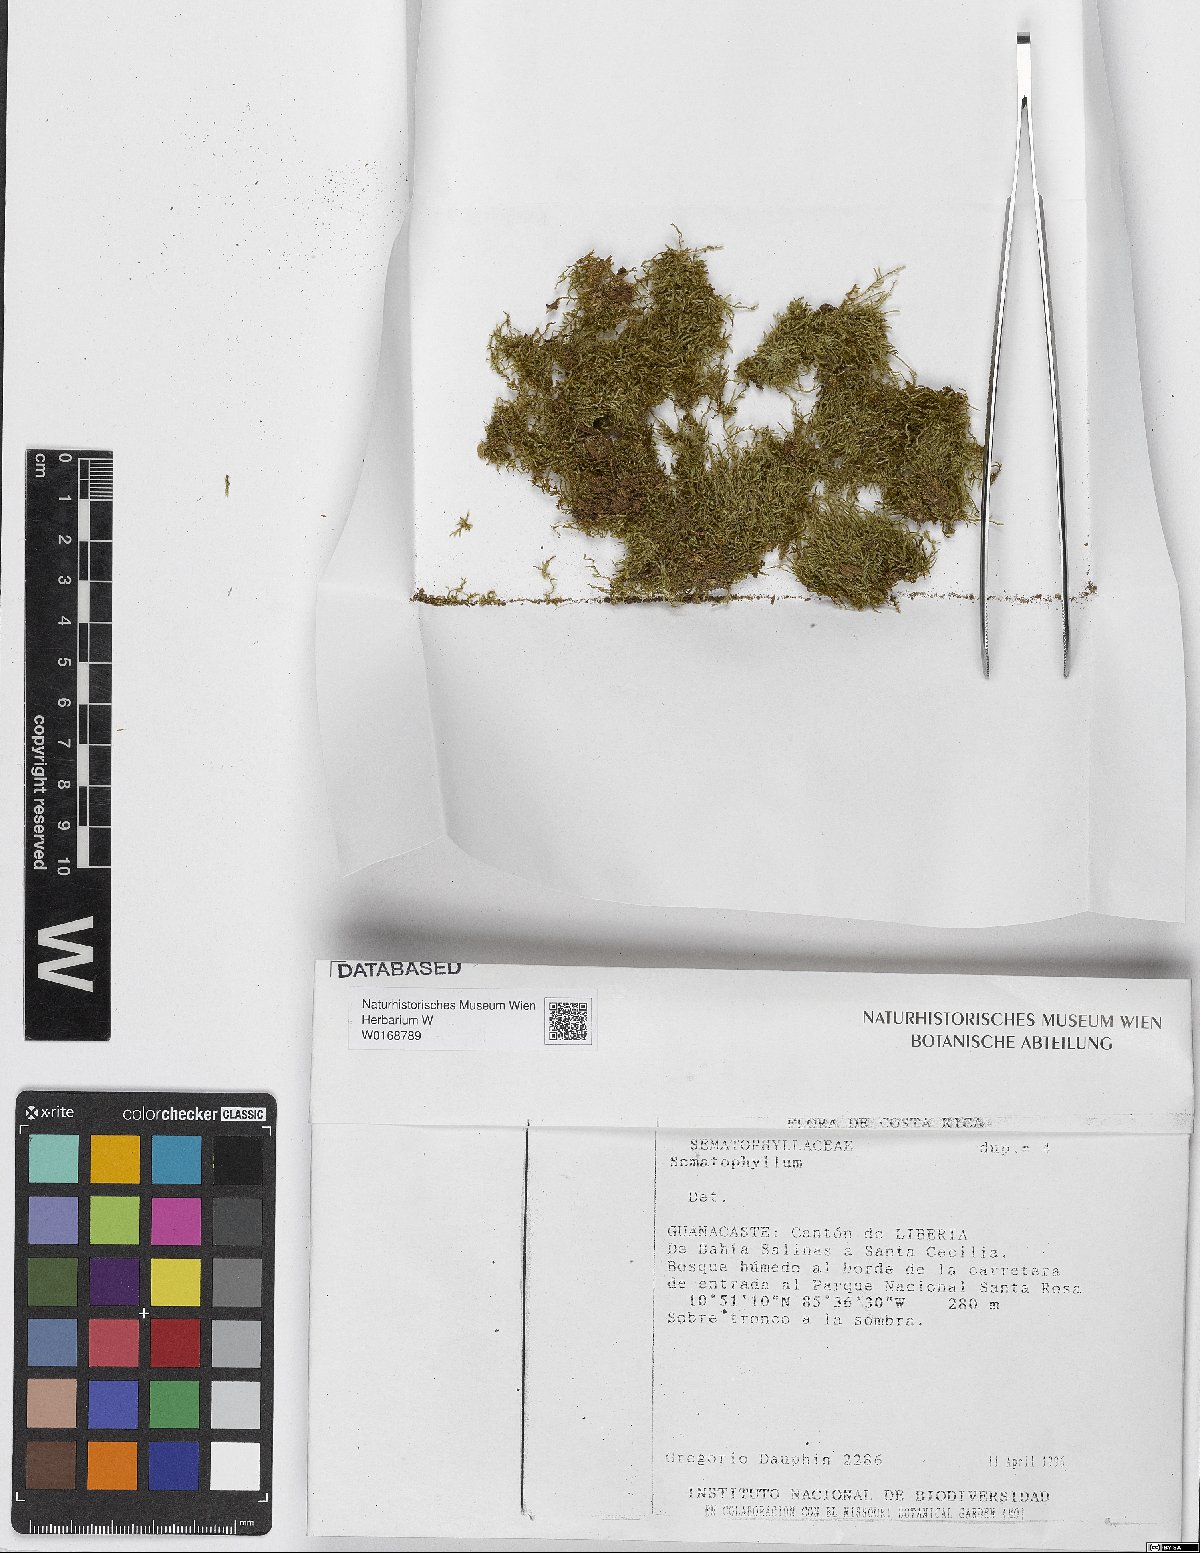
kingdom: Plantae
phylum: Bryophyta
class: Bryopsida
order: Hypnales
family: Sematophyllaceae
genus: Sematophyllum
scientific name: Sematophyllum
